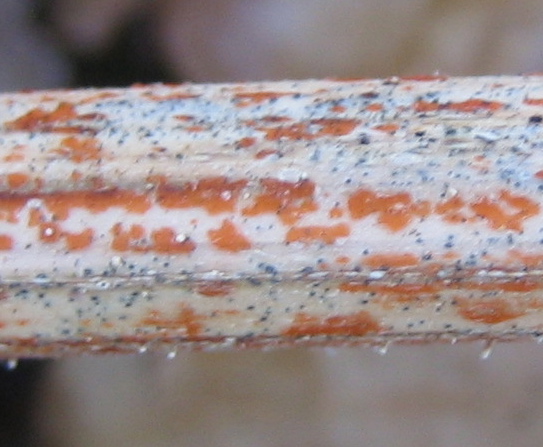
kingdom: Fungi
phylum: Ascomycota
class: Leotiomycetes
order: Helotiales
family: Calloriaceae
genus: Calloria
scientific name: Calloria urticae
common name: nælde-orangeskive
